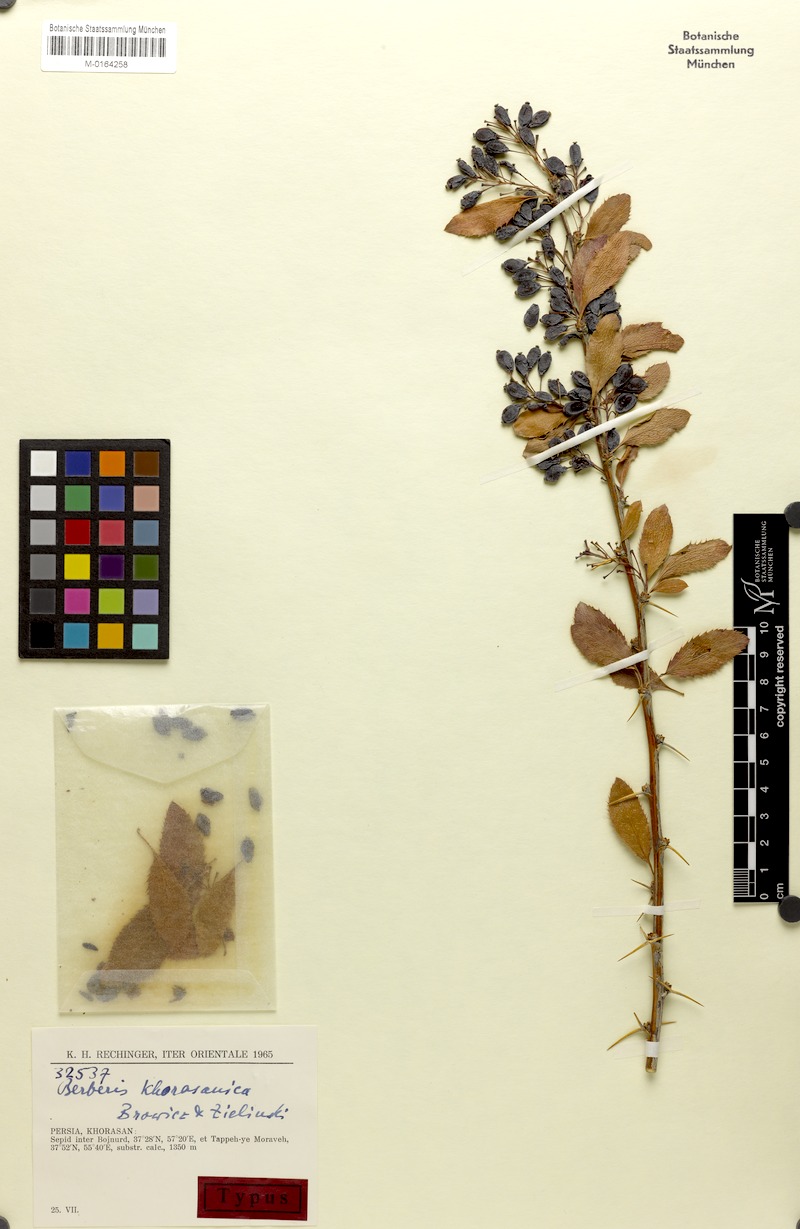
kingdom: Plantae
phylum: Tracheophyta
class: Magnoliopsida
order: Ranunculales
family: Berberidaceae
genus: Berberis
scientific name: Berberis khorasanica
